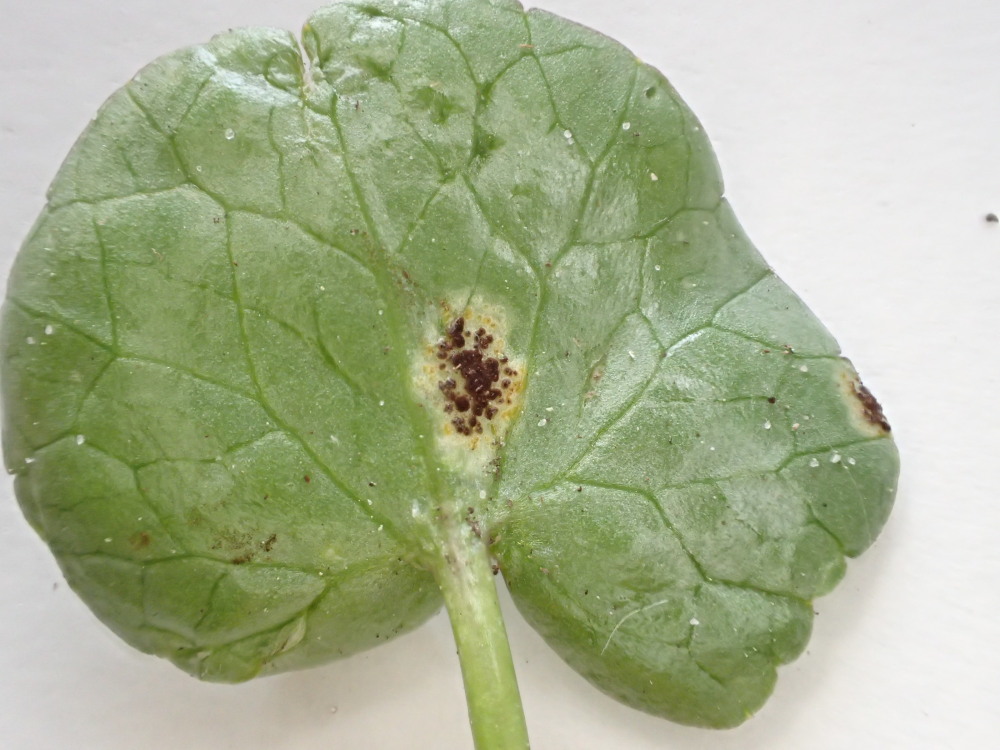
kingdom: Fungi
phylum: Basidiomycota
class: Pucciniomycetes
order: Pucciniales
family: Pucciniaceae
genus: Uromyces
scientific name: Uromyces ficariae
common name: vorterod-encellerust
